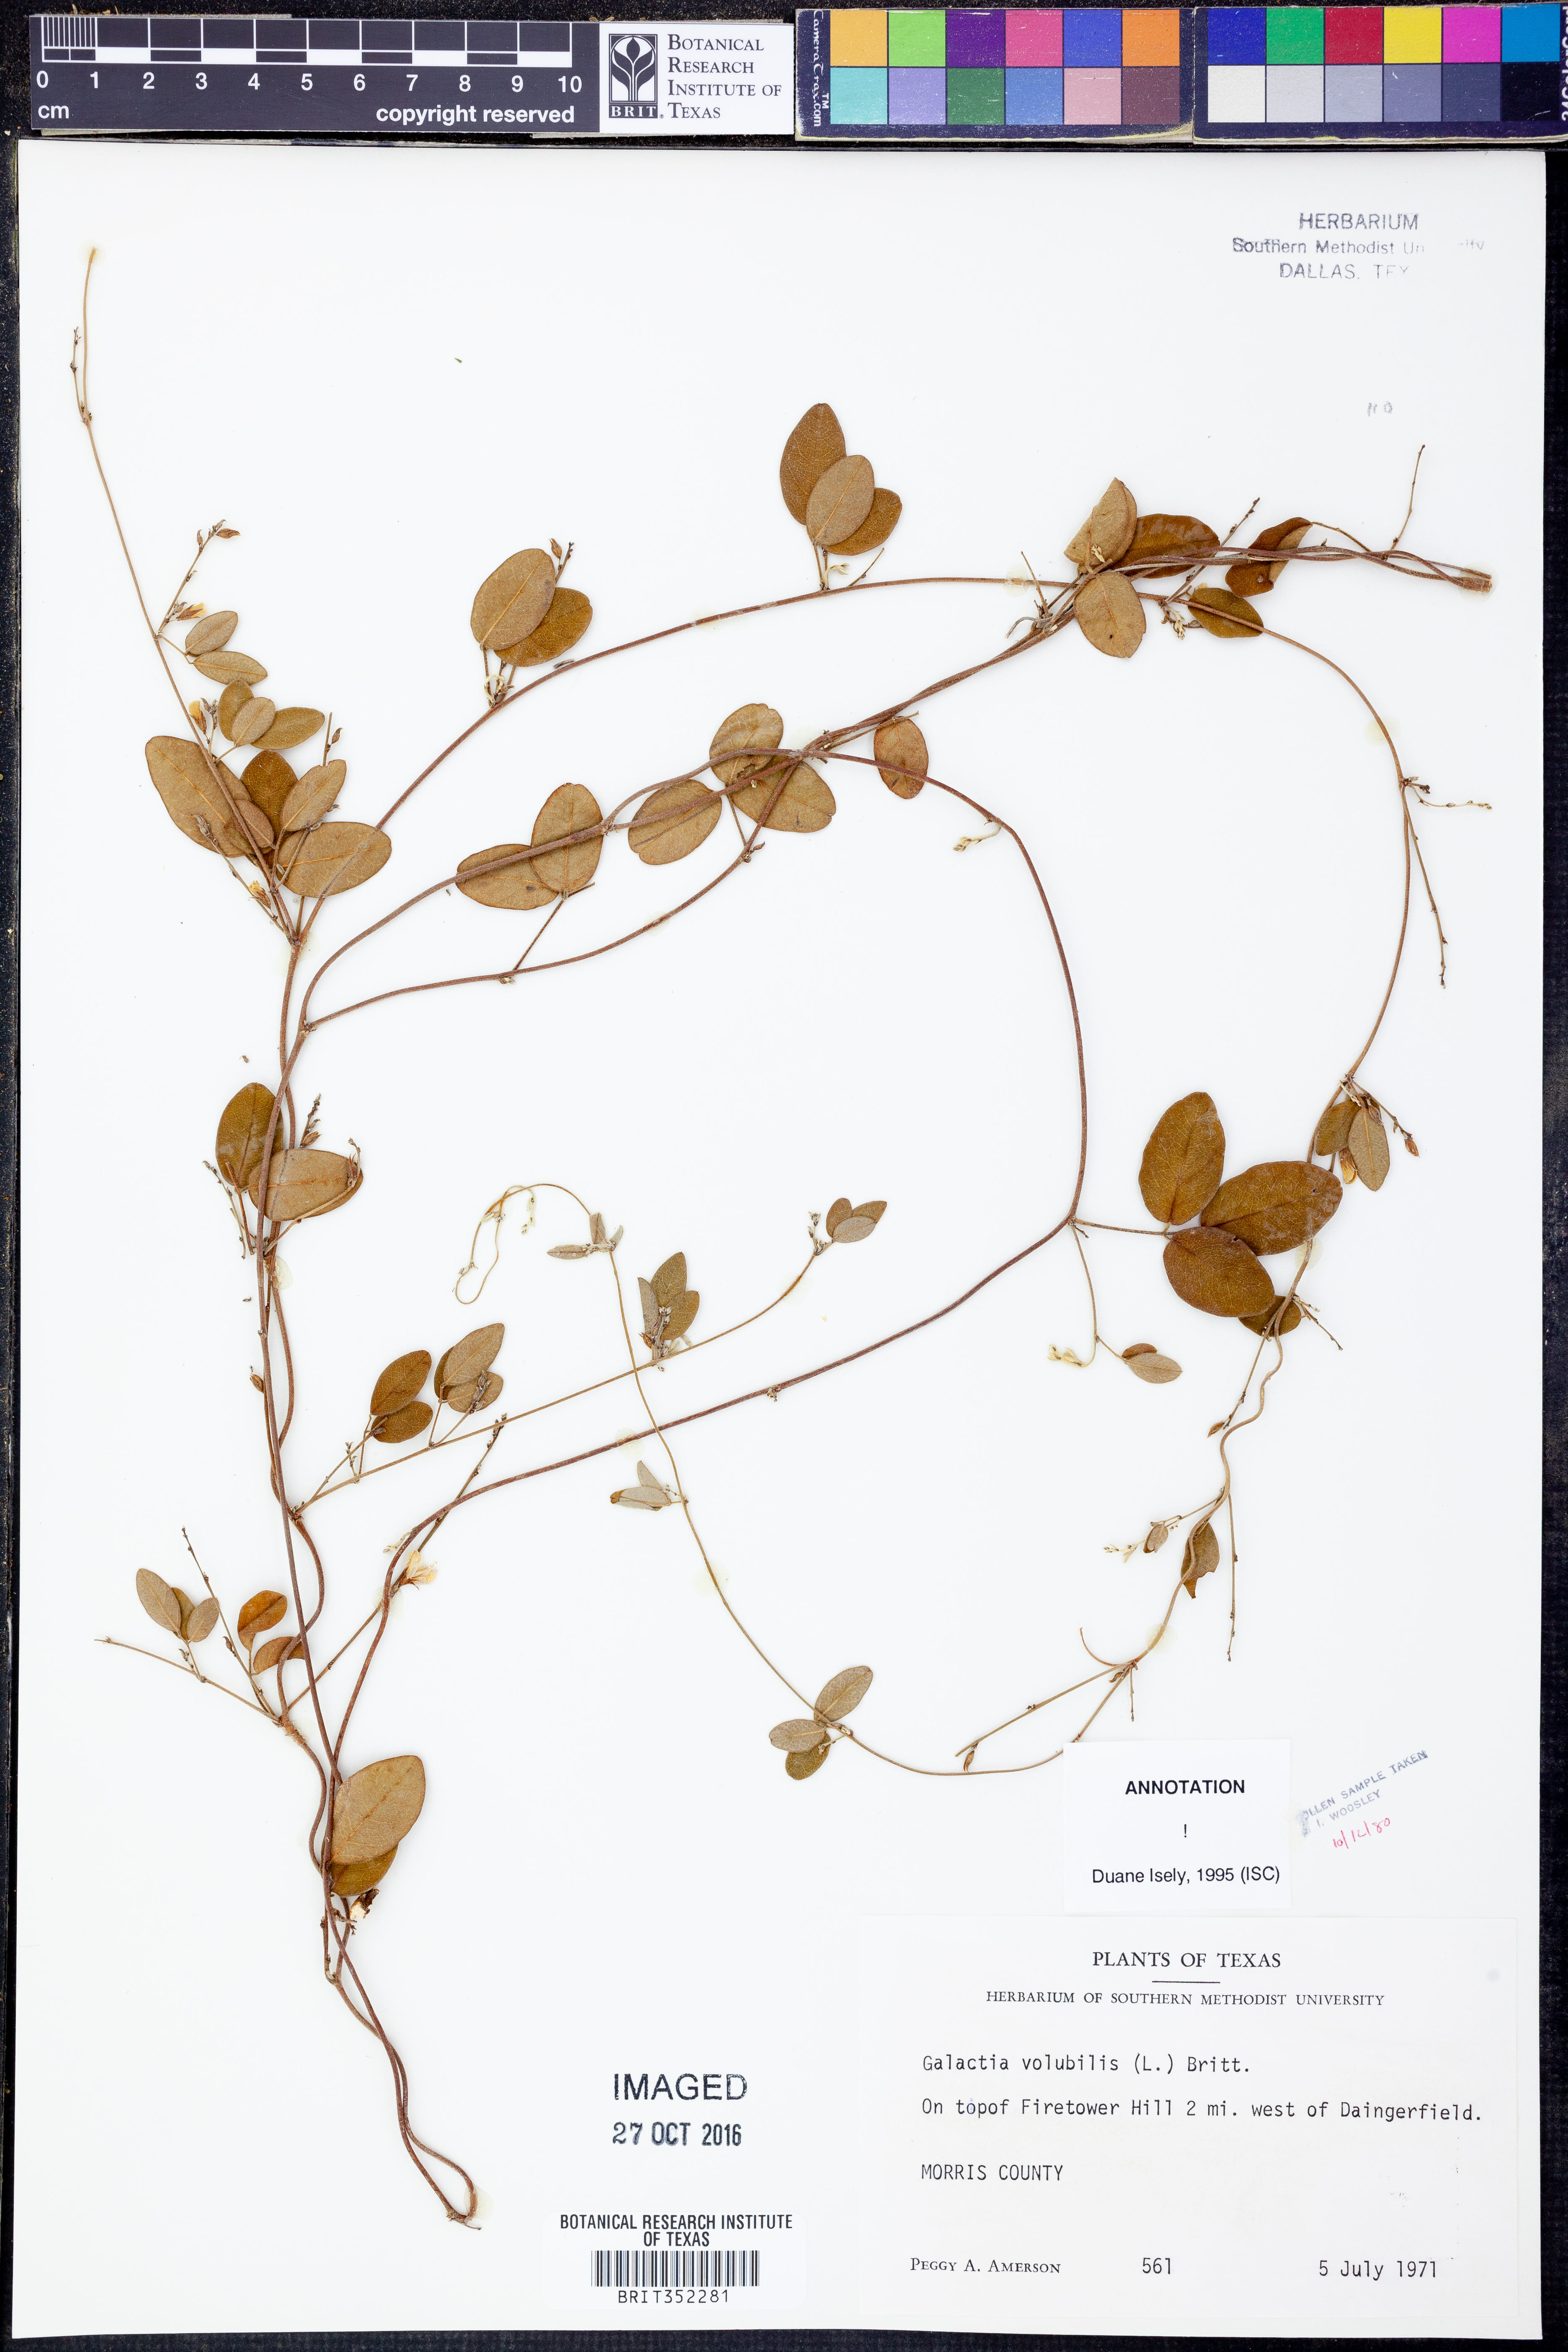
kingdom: Plantae
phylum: Tracheophyta
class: Magnoliopsida
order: Fabales
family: Fabaceae
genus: Galactia
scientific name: Galactia volubilis
